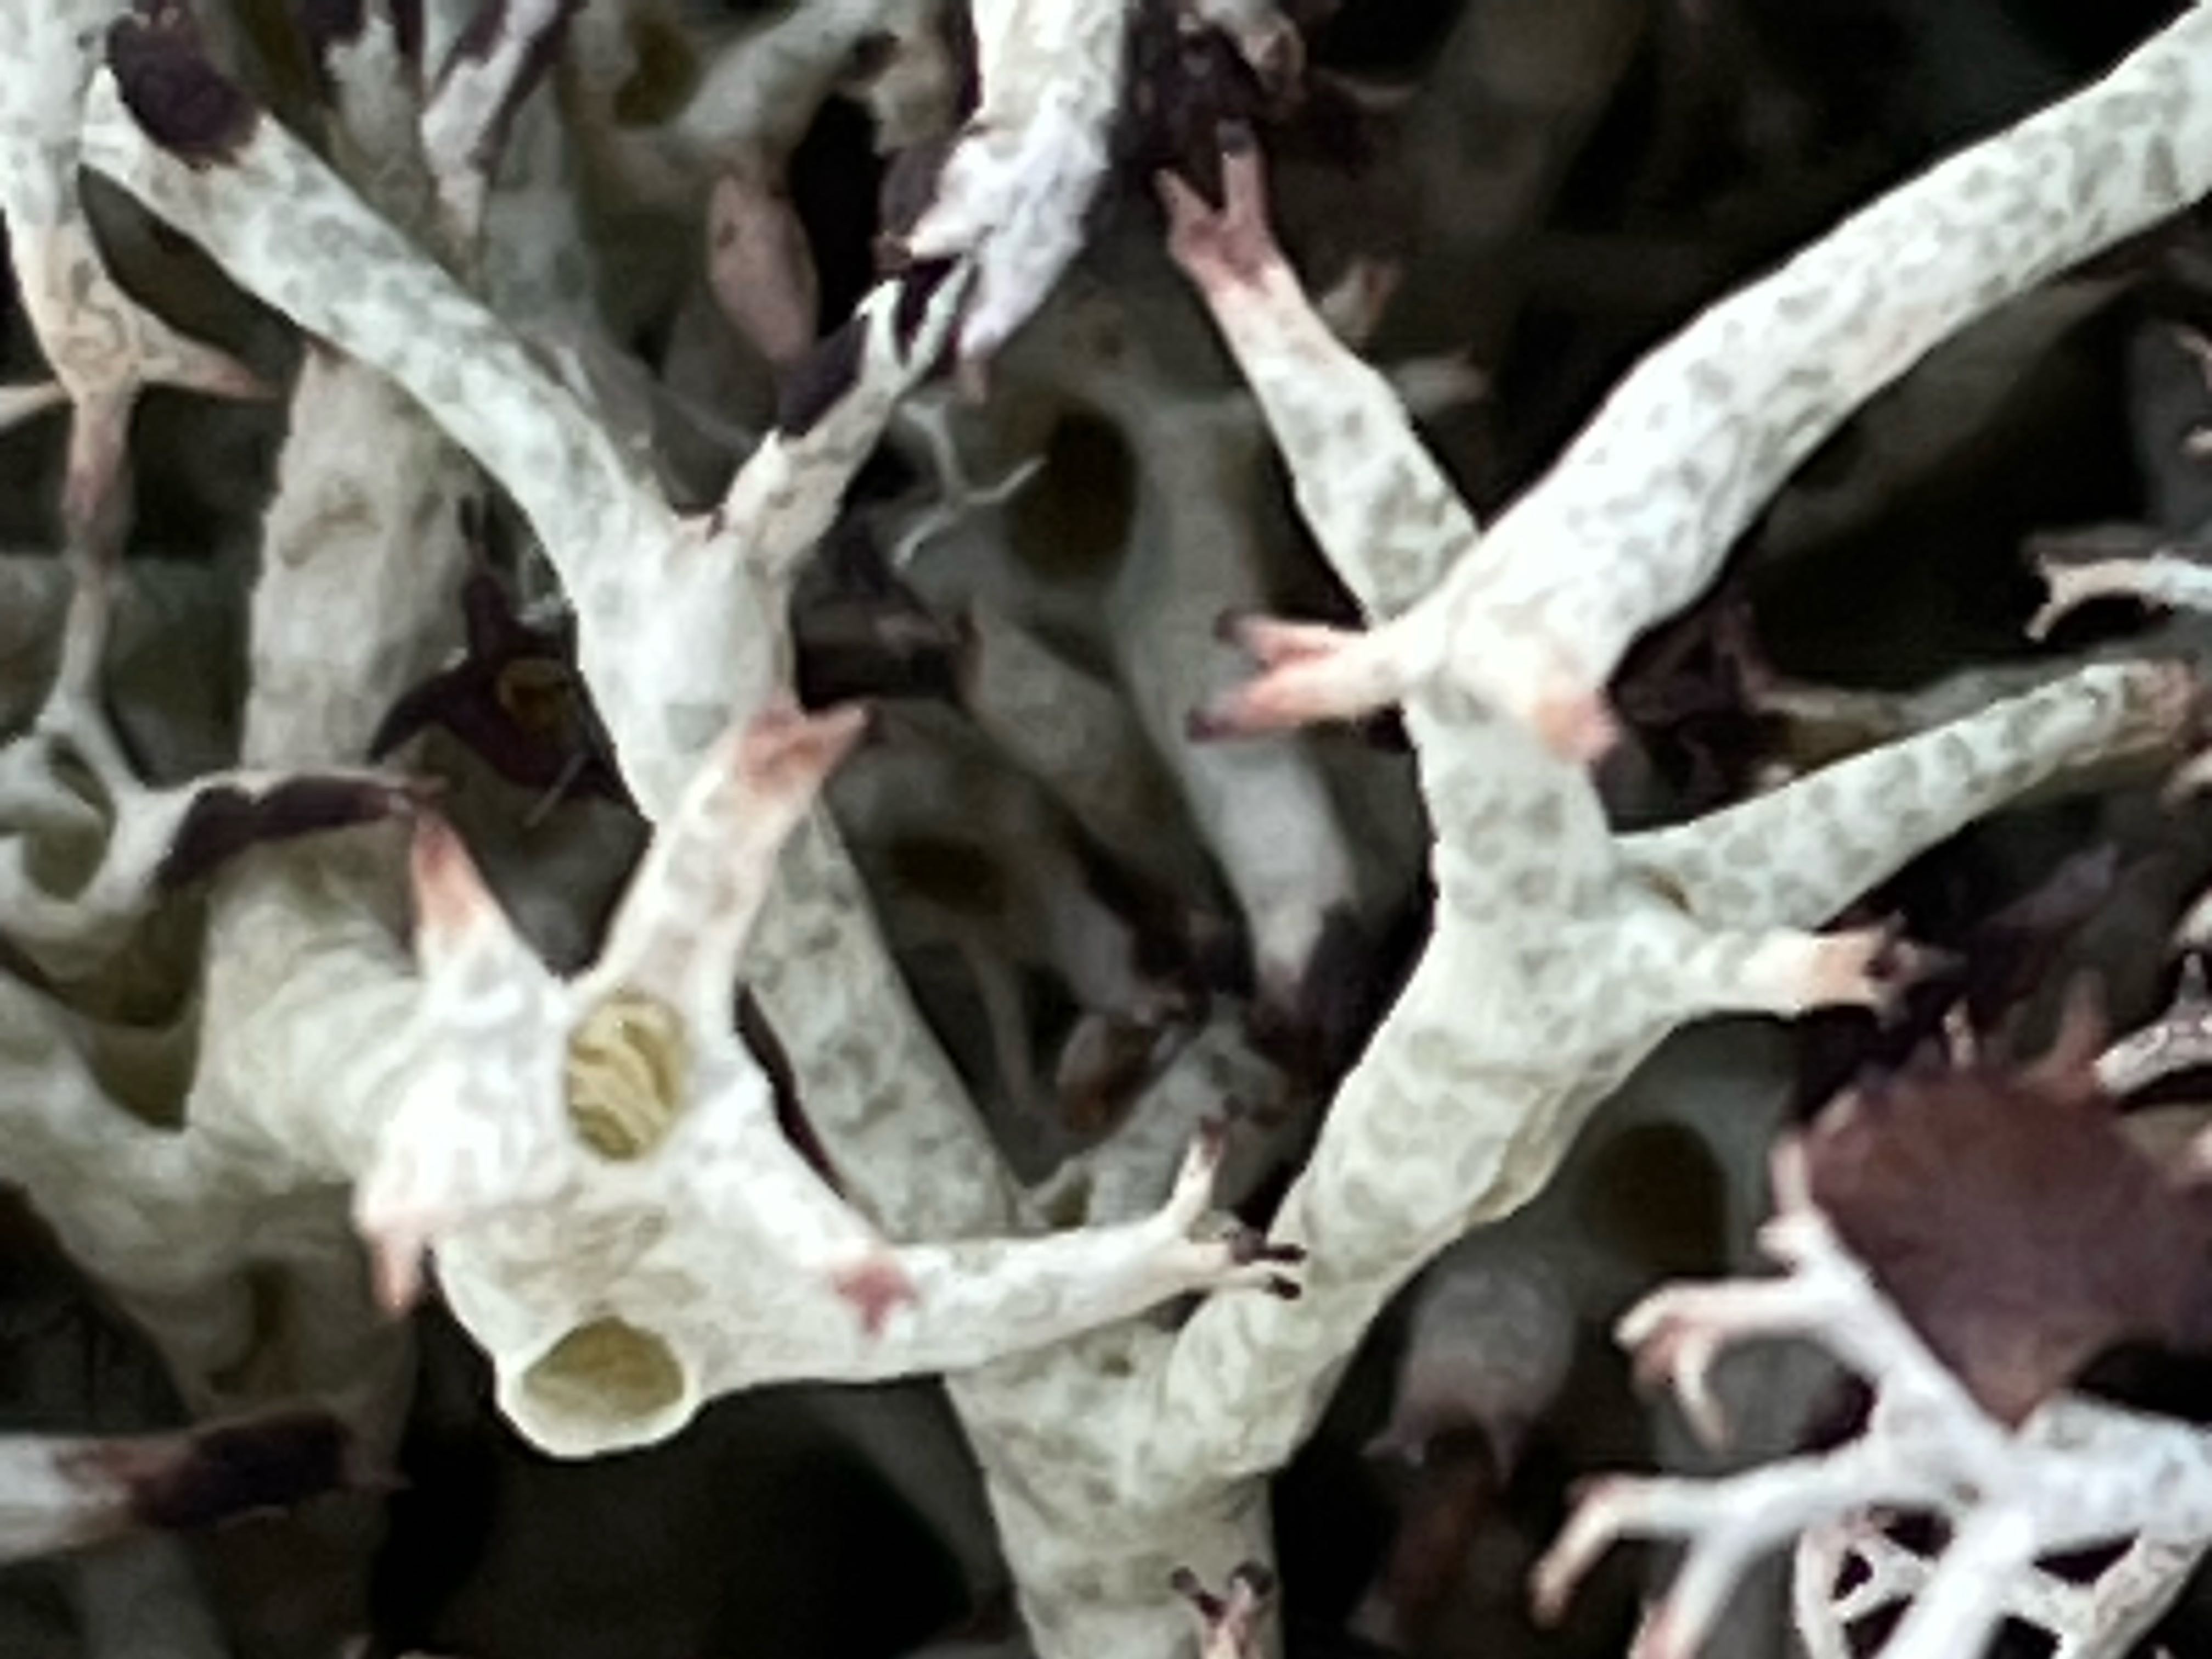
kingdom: Fungi
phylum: Ascomycota
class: Lecanoromycetes
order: Lecanorales
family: Cladoniaceae
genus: Cladonia
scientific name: Cladonia uncialis
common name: pigget bægerlav
